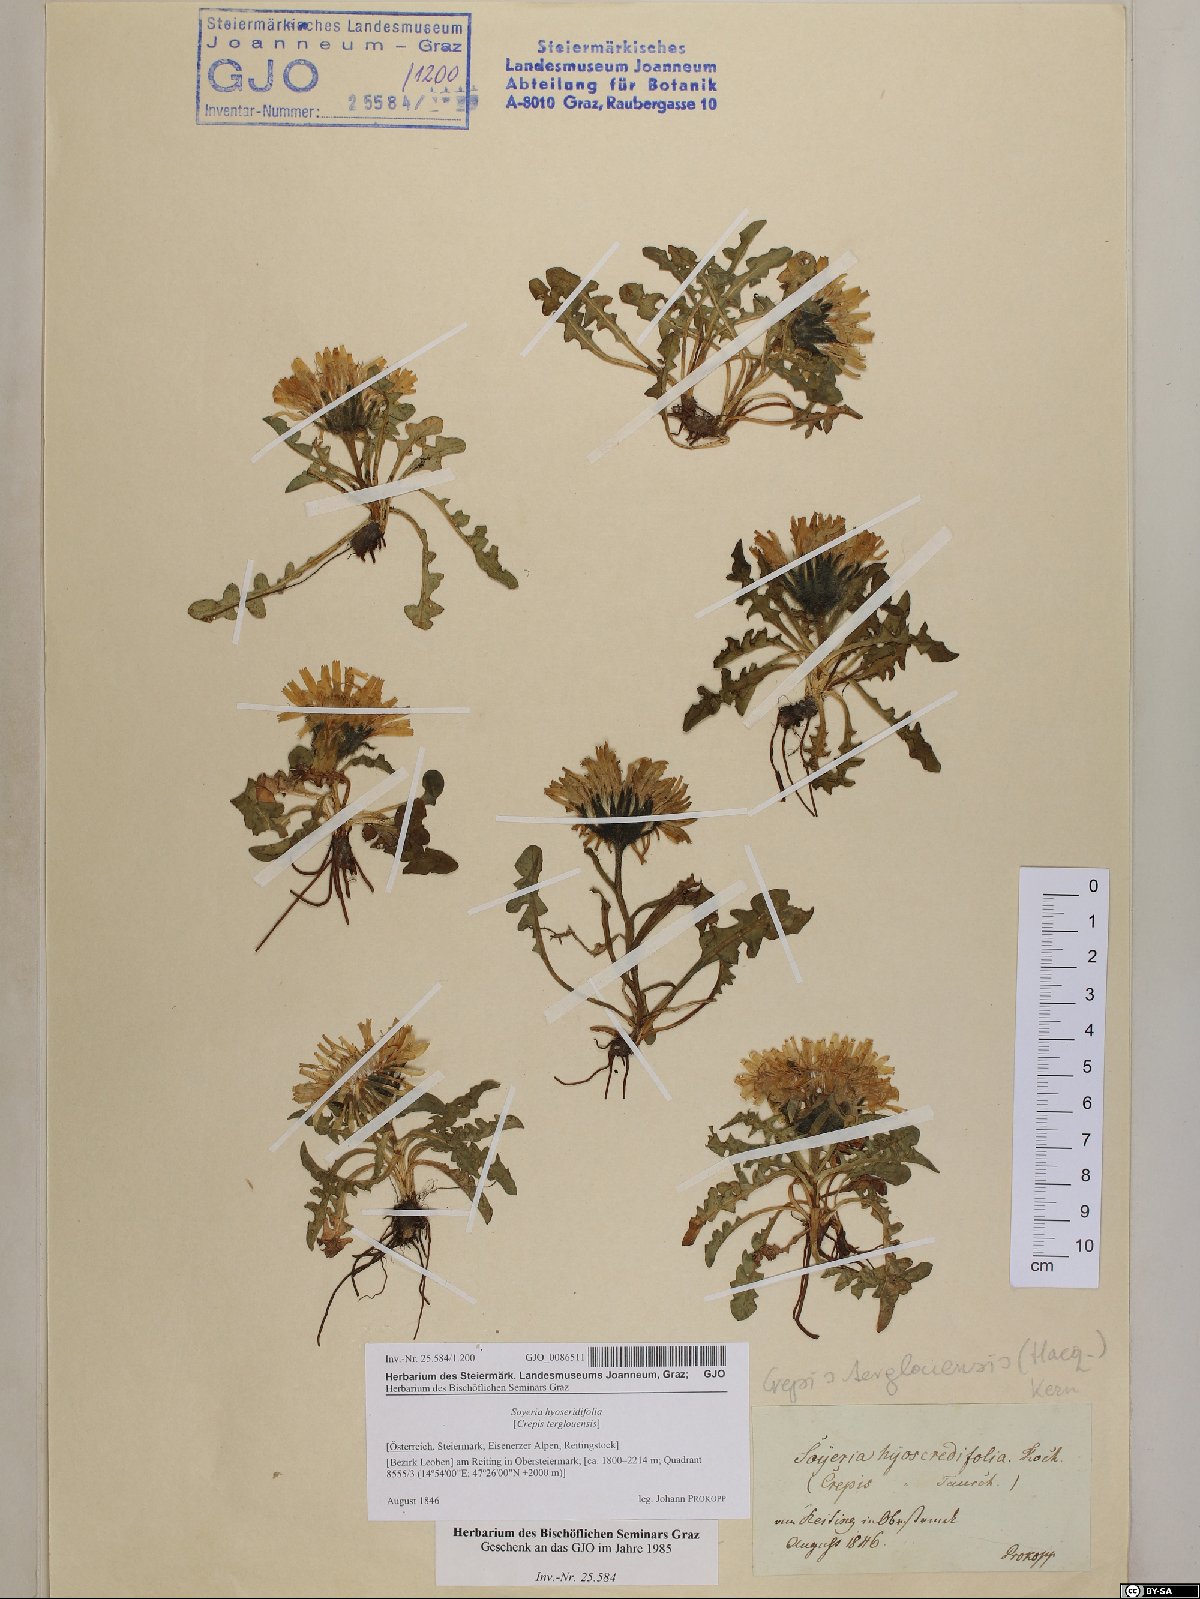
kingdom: Plantae
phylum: Tracheophyta
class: Magnoliopsida
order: Asterales
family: Asteraceae
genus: Crepis
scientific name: Crepis terglouensis
